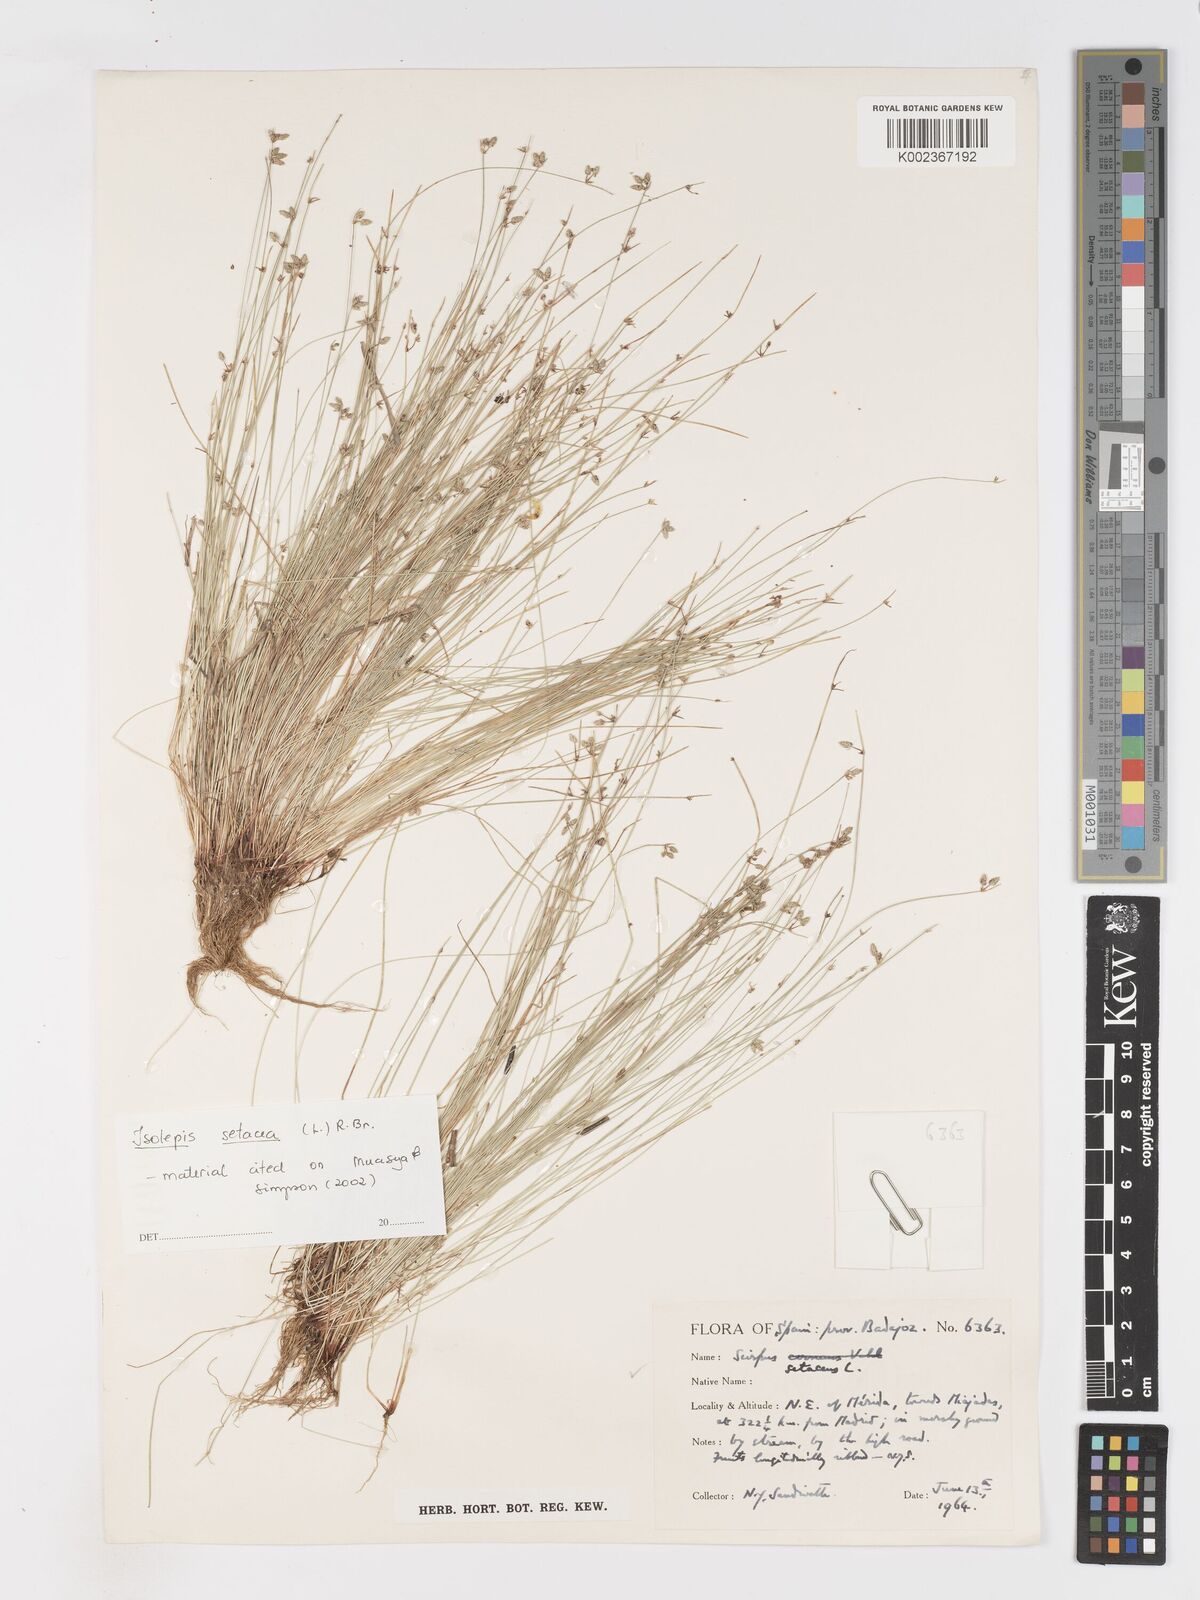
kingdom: Plantae
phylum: Tracheophyta
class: Liliopsida
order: Poales
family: Cyperaceae
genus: Isolepis
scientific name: Isolepis setacea
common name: Bristle club-rush
